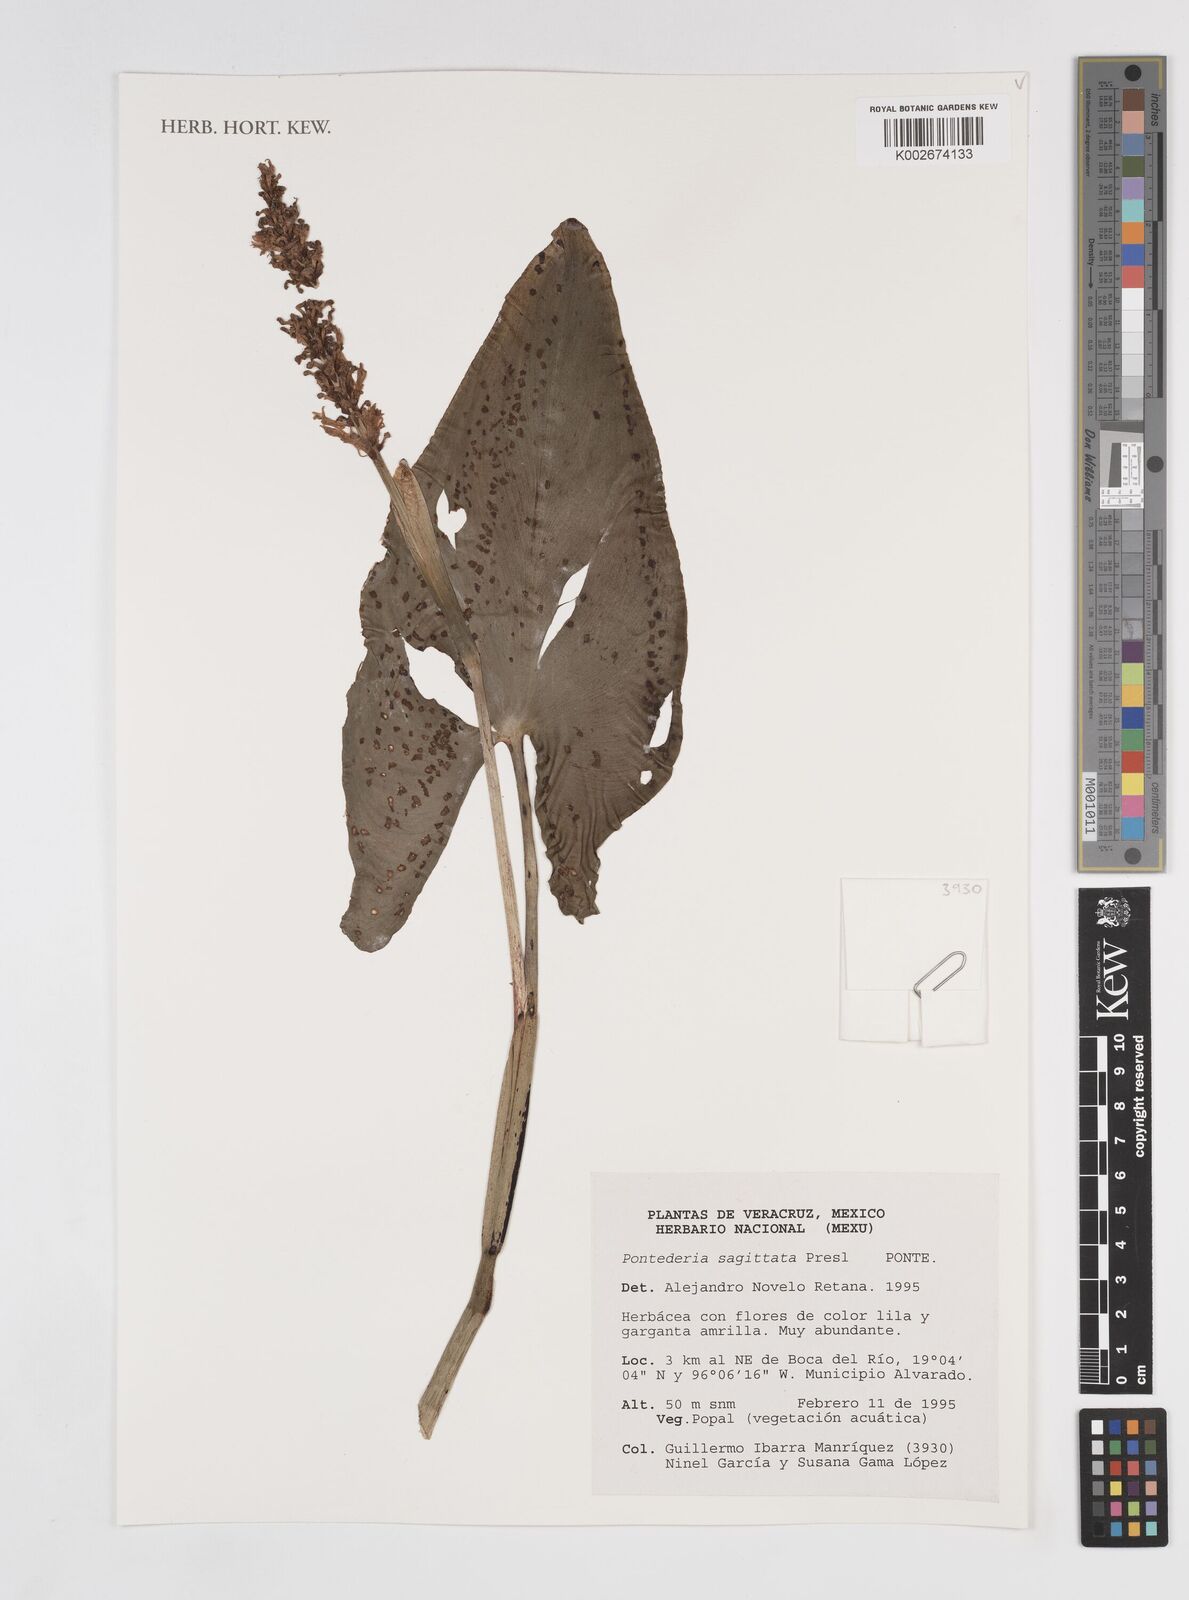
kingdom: Plantae
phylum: Tracheophyta
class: Liliopsida
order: Commelinales
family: Pontederiaceae
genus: Pontederia
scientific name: Pontederia sagittata
